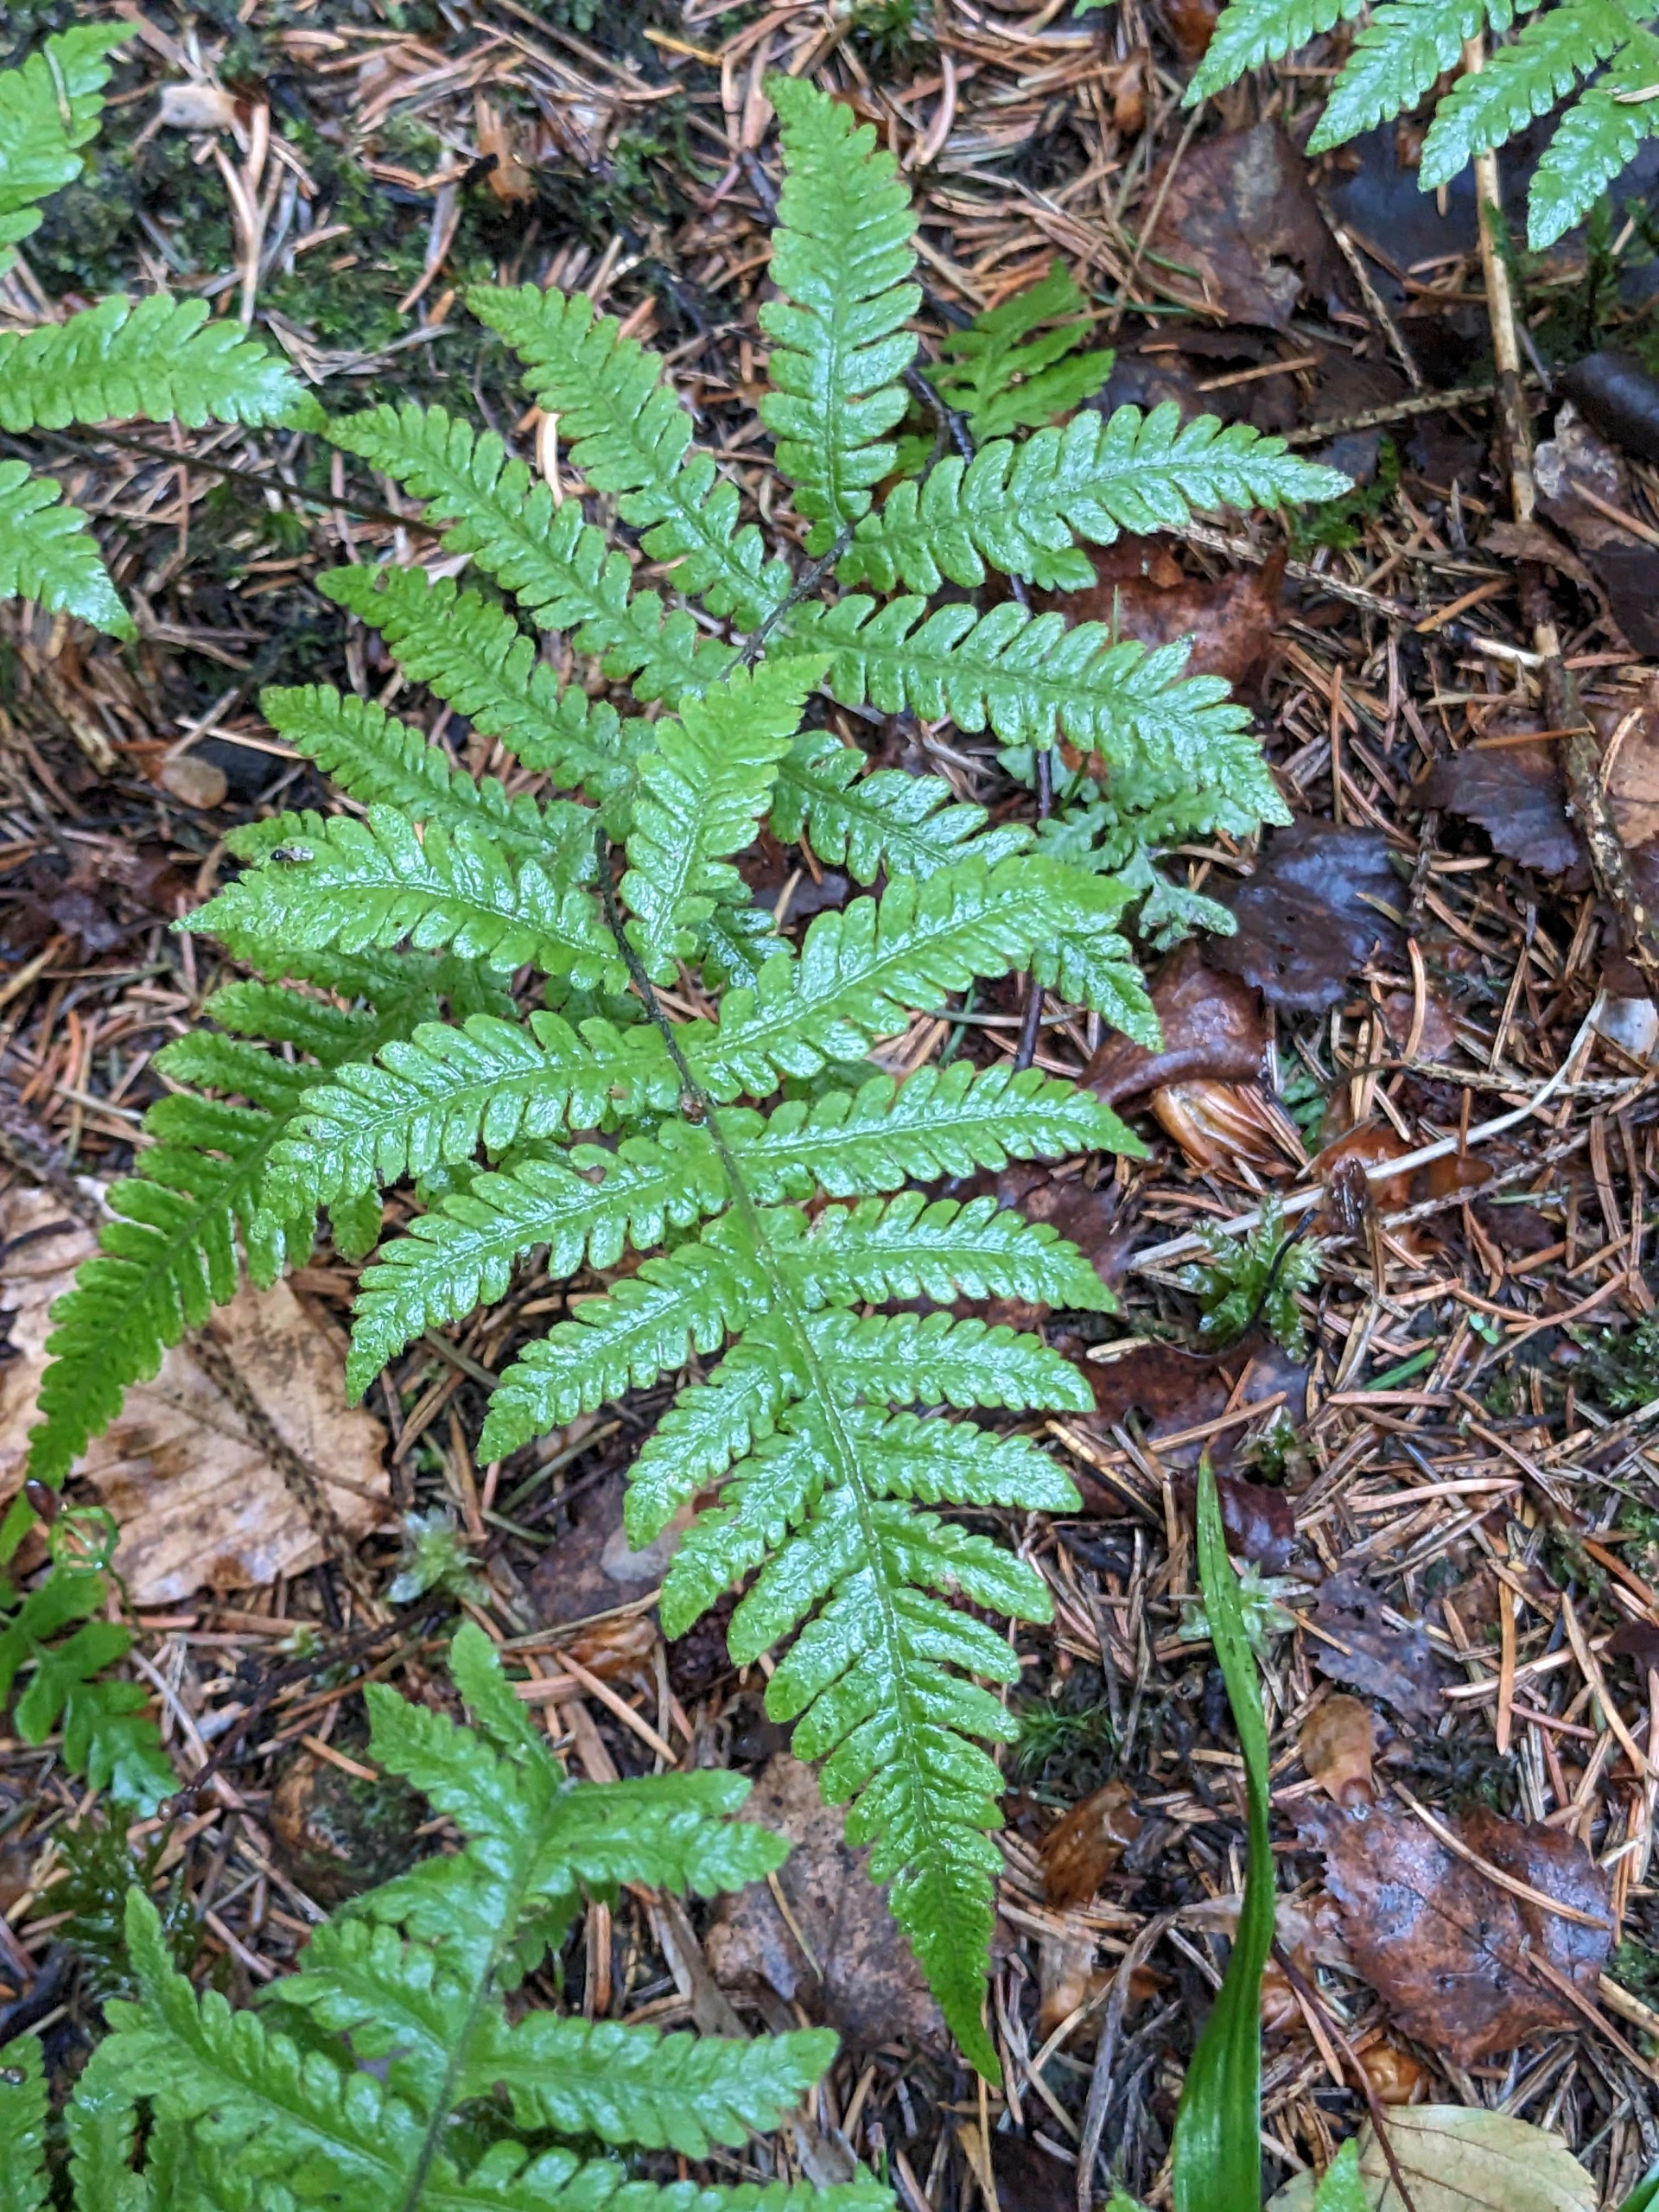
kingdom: Plantae
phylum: Tracheophyta
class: Polypodiopsida
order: Polypodiales
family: Thelypteridaceae
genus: Phegopteris
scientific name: Phegopteris connectilis
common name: Dunet egebregne
